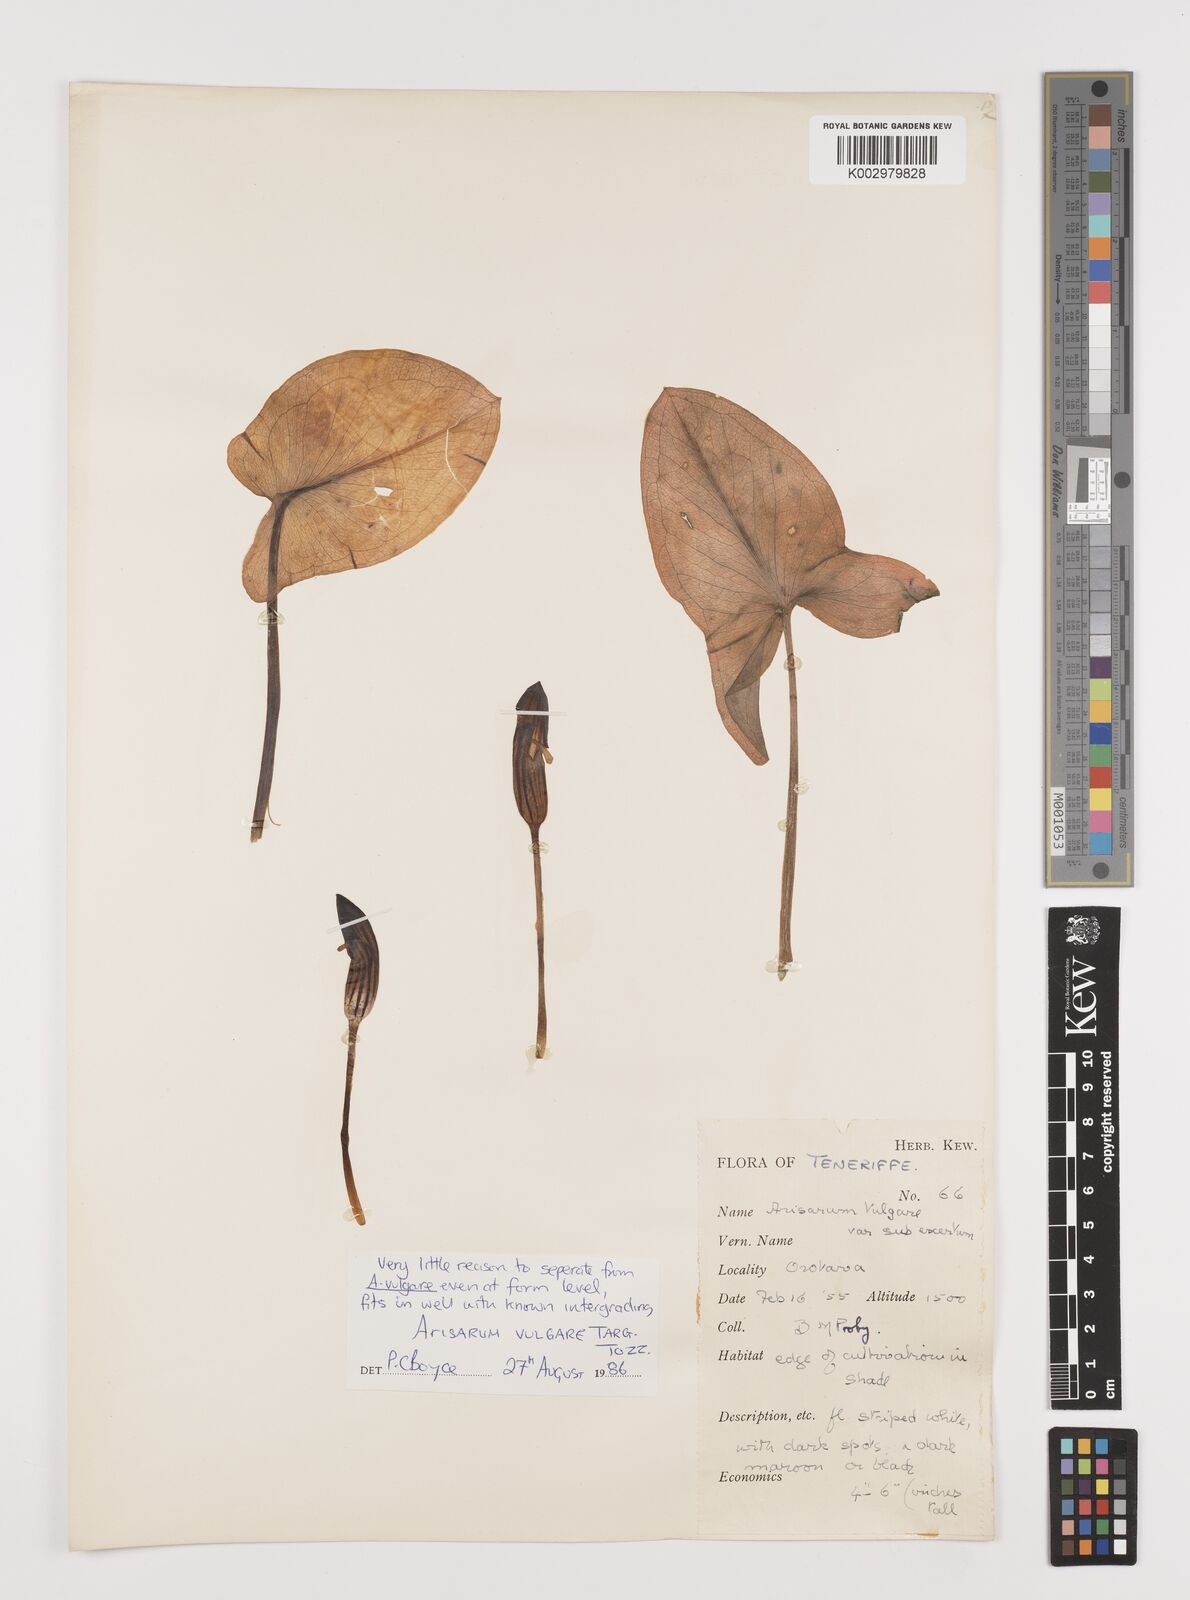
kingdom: Plantae
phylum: Tracheophyta
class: Liliopsida
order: Alismatales
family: Araceae
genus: Arisarum
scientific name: Arisarum vulgare
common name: Common arisarum
